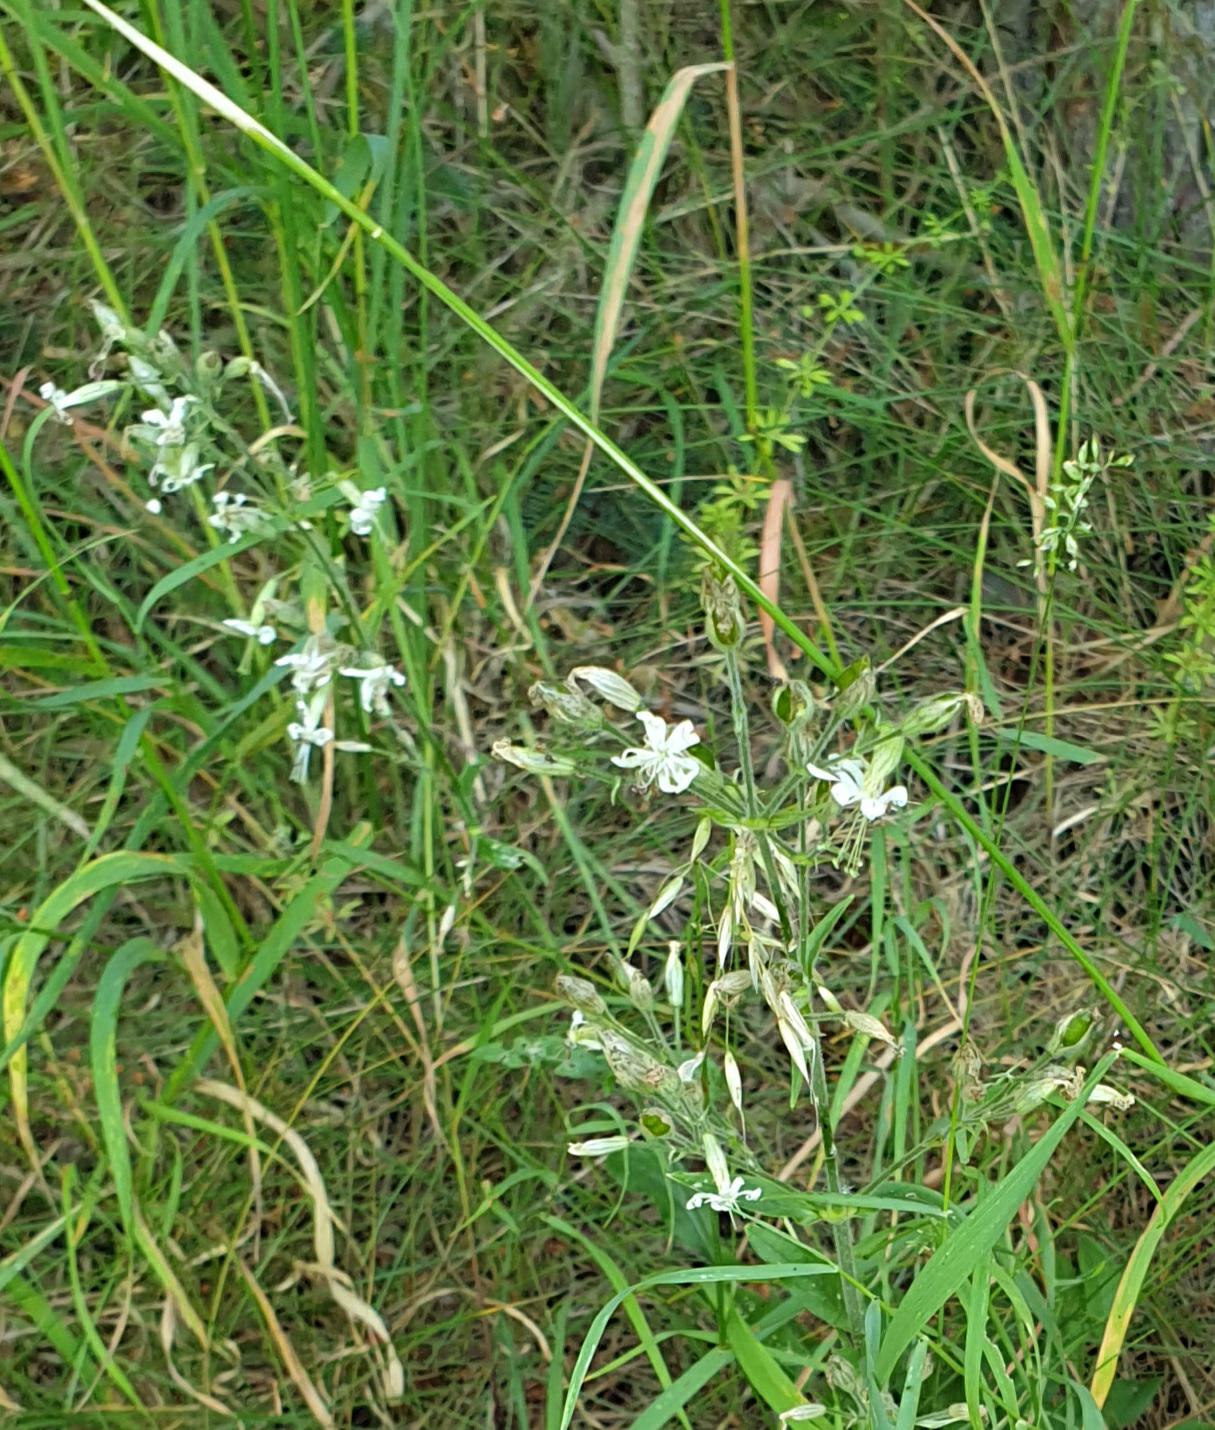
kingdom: Plantae
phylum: Tracheophyta
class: Magnoliopsida
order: Caryophyllales
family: Caryophyllaceae
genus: Silene
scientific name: Silene nutans
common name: Nikkende limurt
